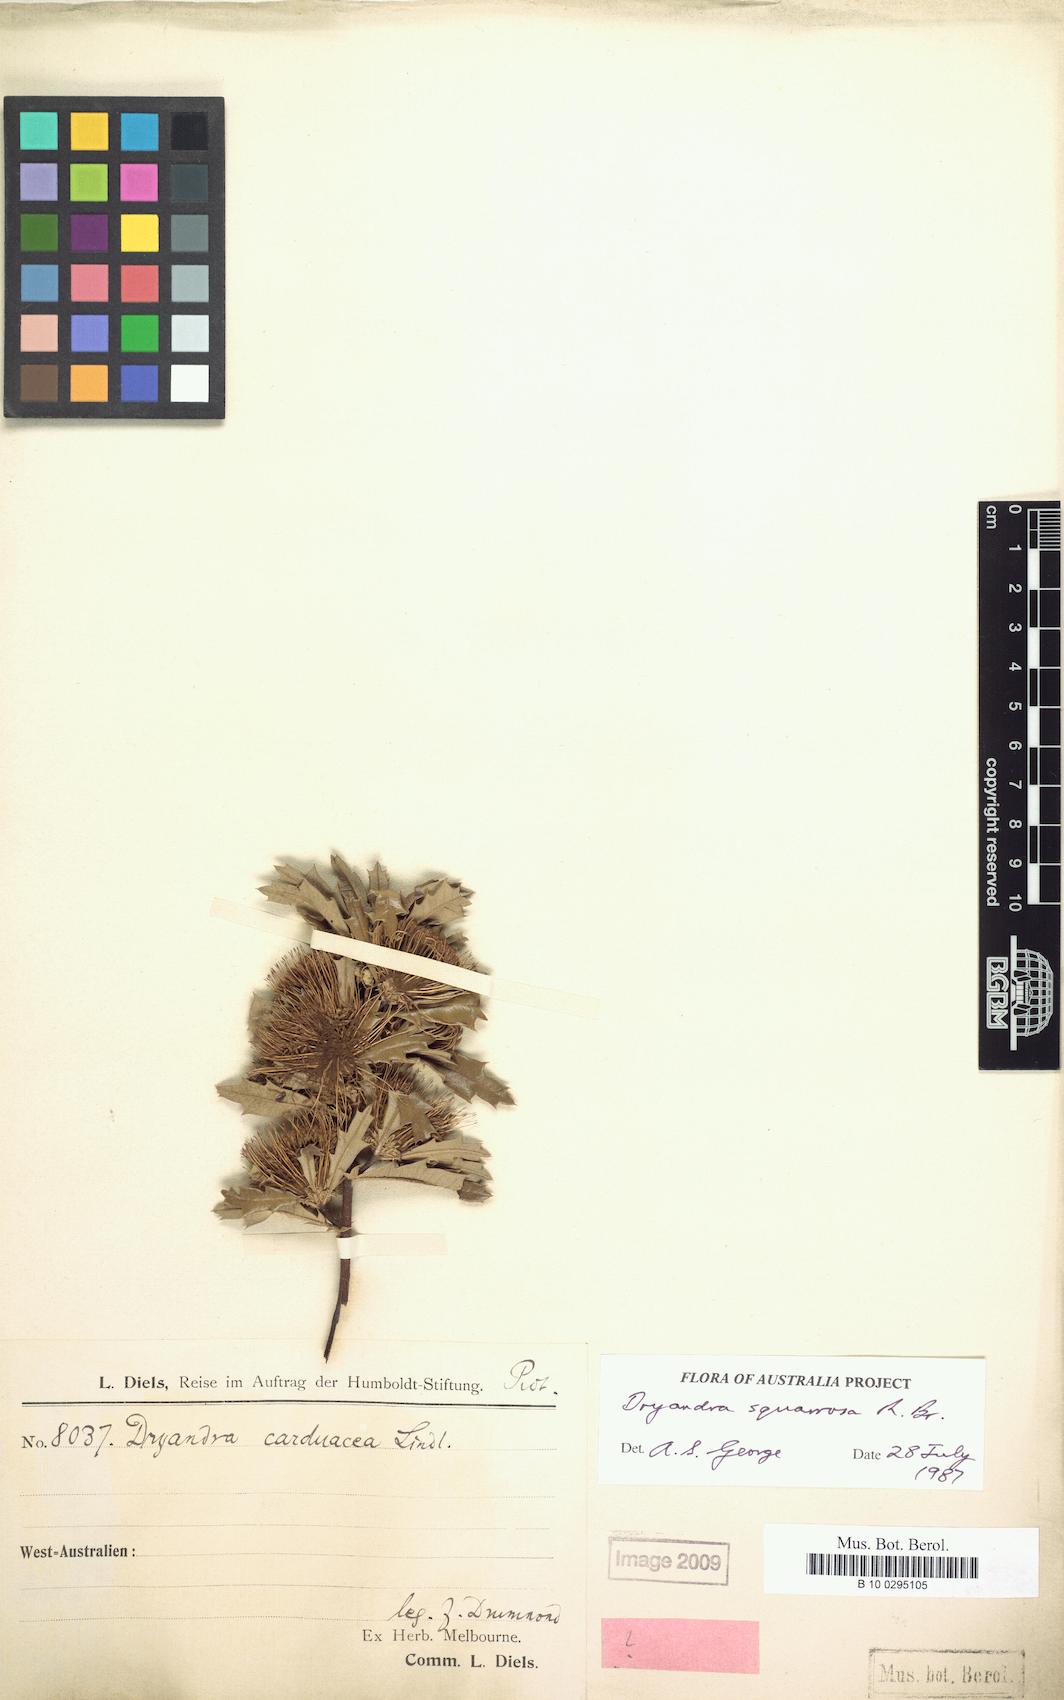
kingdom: Plantae
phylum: Tracheophyta
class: Magnoliopsida
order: Proteales
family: Proteaceae
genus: Banksia
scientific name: Banksia squarrosa
